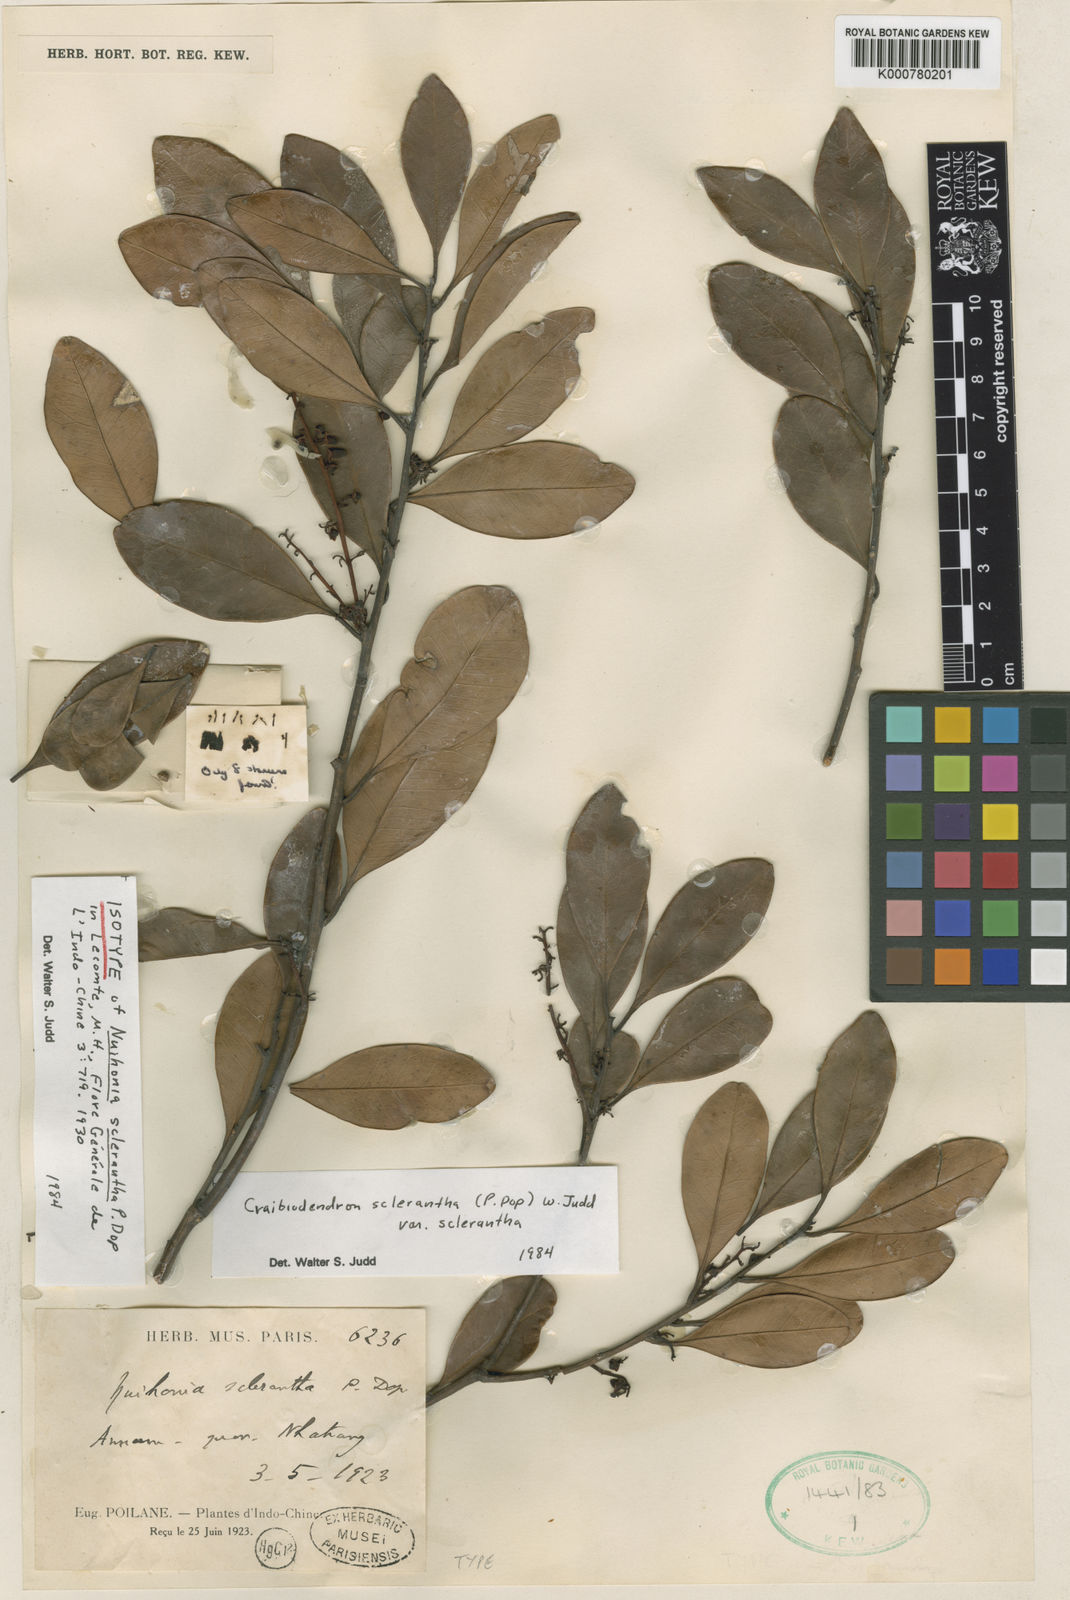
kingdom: Plantae
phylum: Tracheophyta
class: Magnoliopsida
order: Ericales
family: Ericaceae
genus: Craibiodendron
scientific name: Craibiodendron scleranthum
